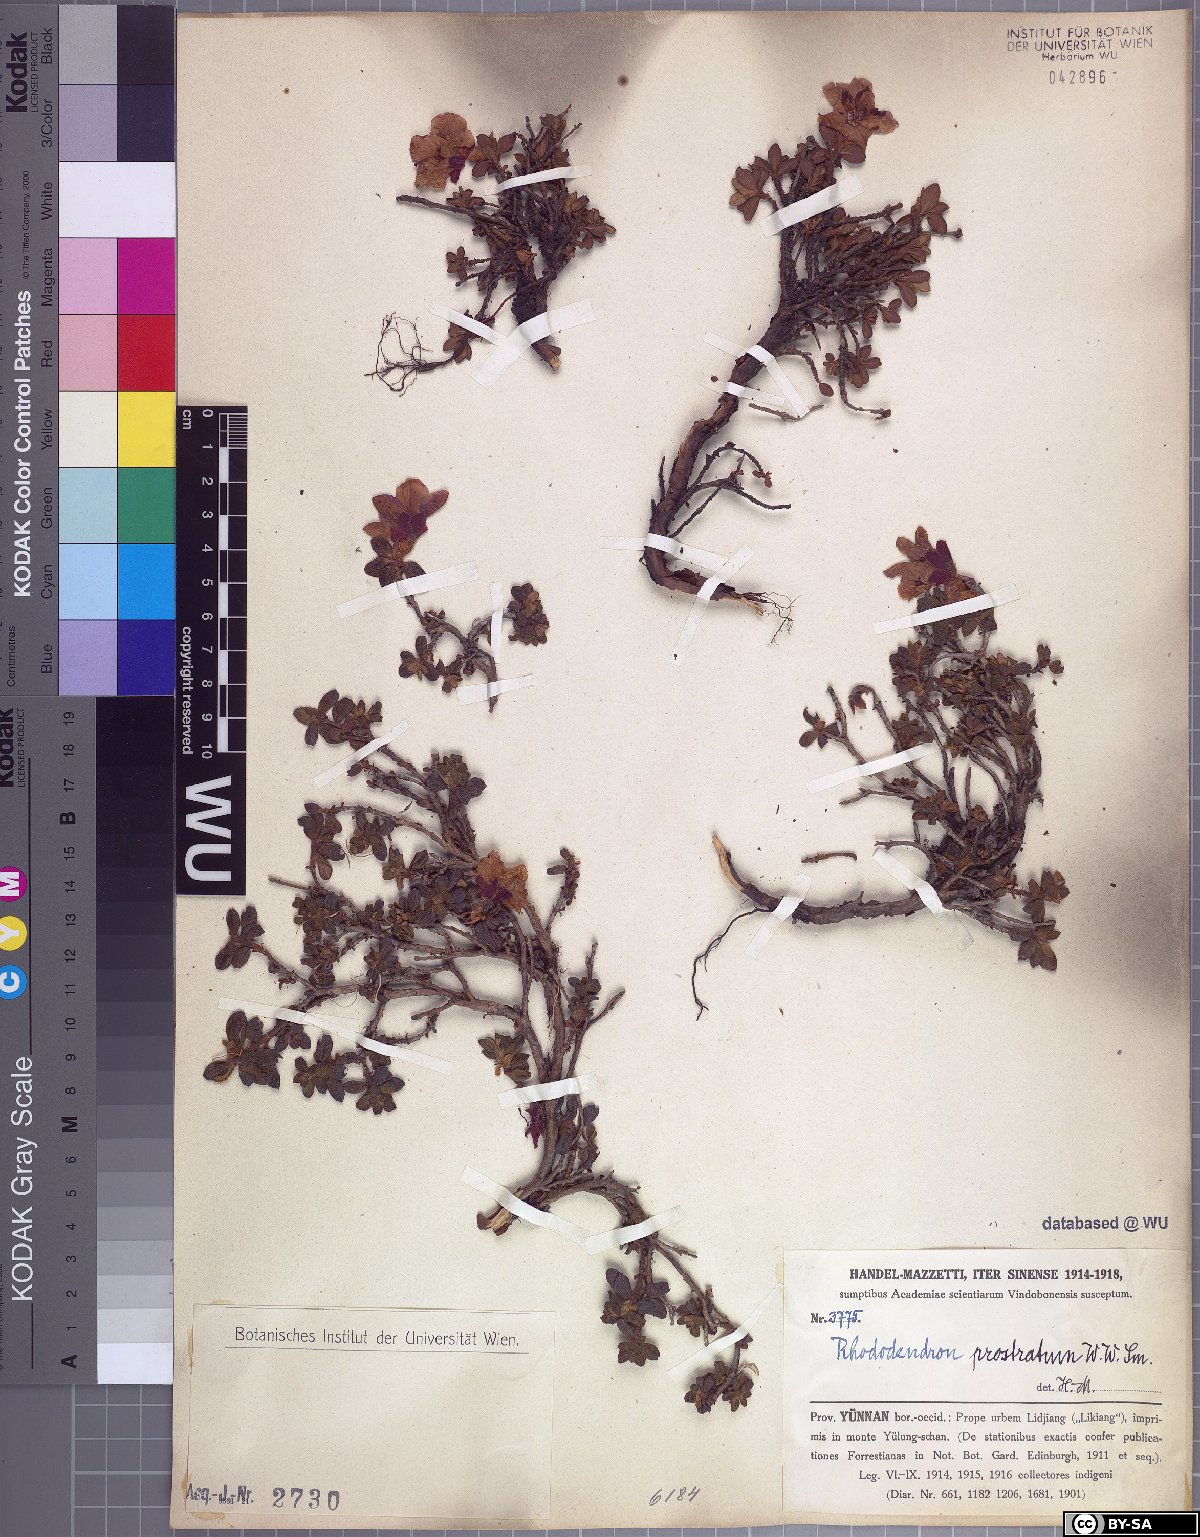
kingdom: Plantae
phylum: Tracheophyta
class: Magnoliopsida
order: Ericales
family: Ericaceae
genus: Rhododendron
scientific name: Rhododendron saluenense
